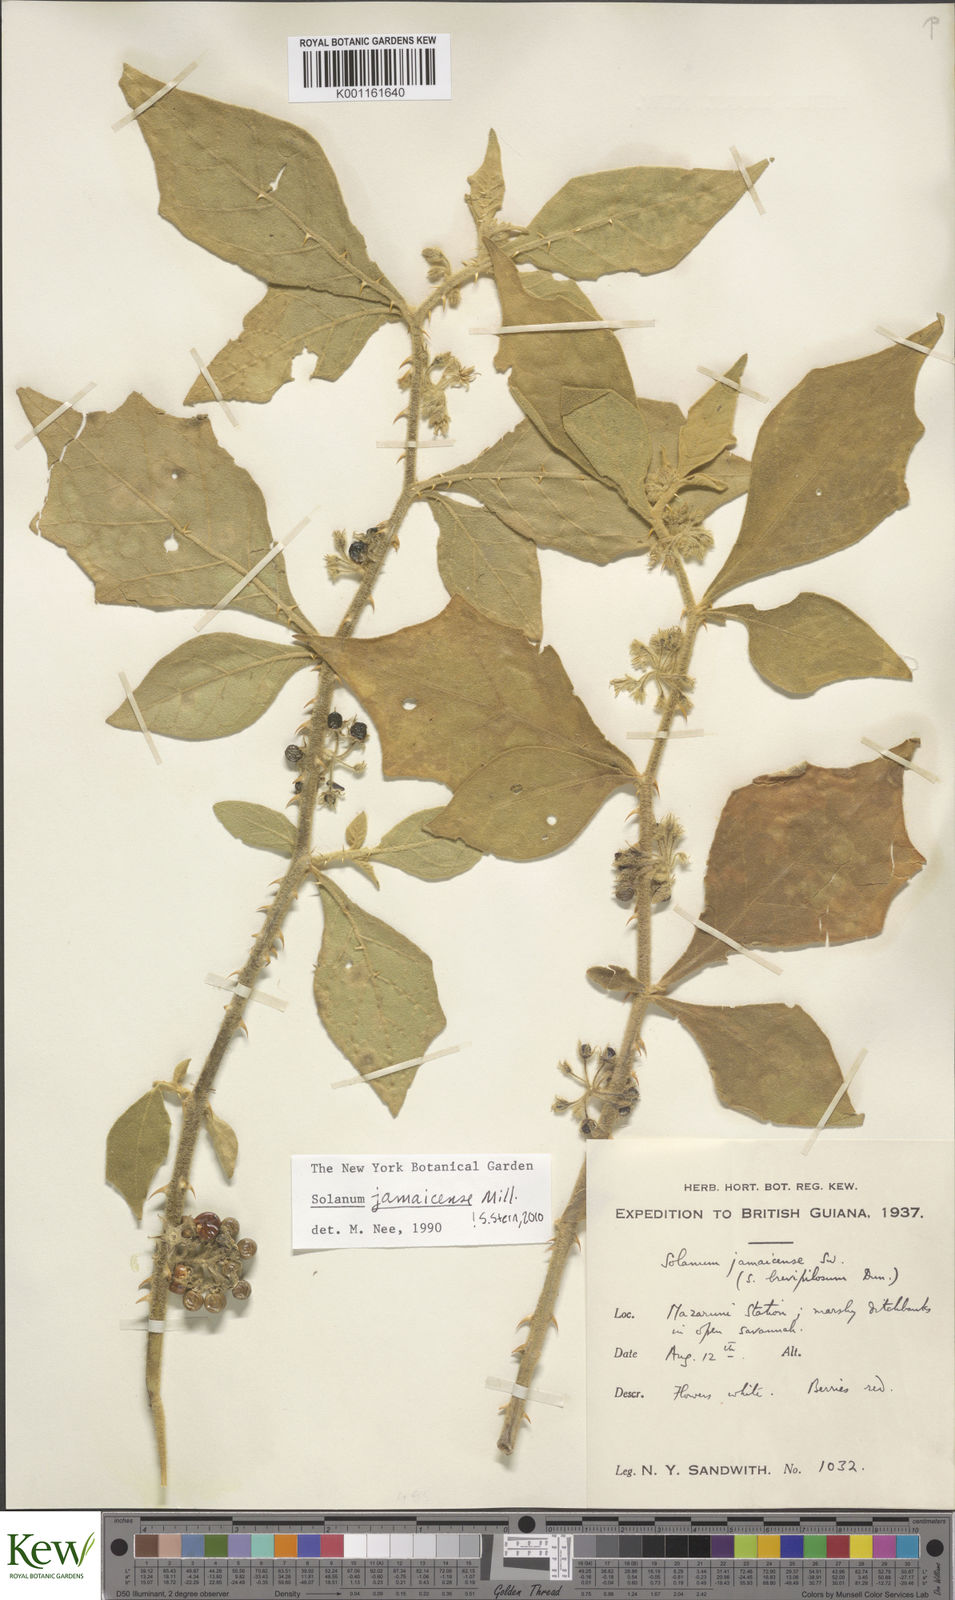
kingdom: Plantae
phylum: Tracheophyta
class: Magnoliopsida
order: Solanales
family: Solanaceae
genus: Solanum
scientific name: Solanum jamaicense
